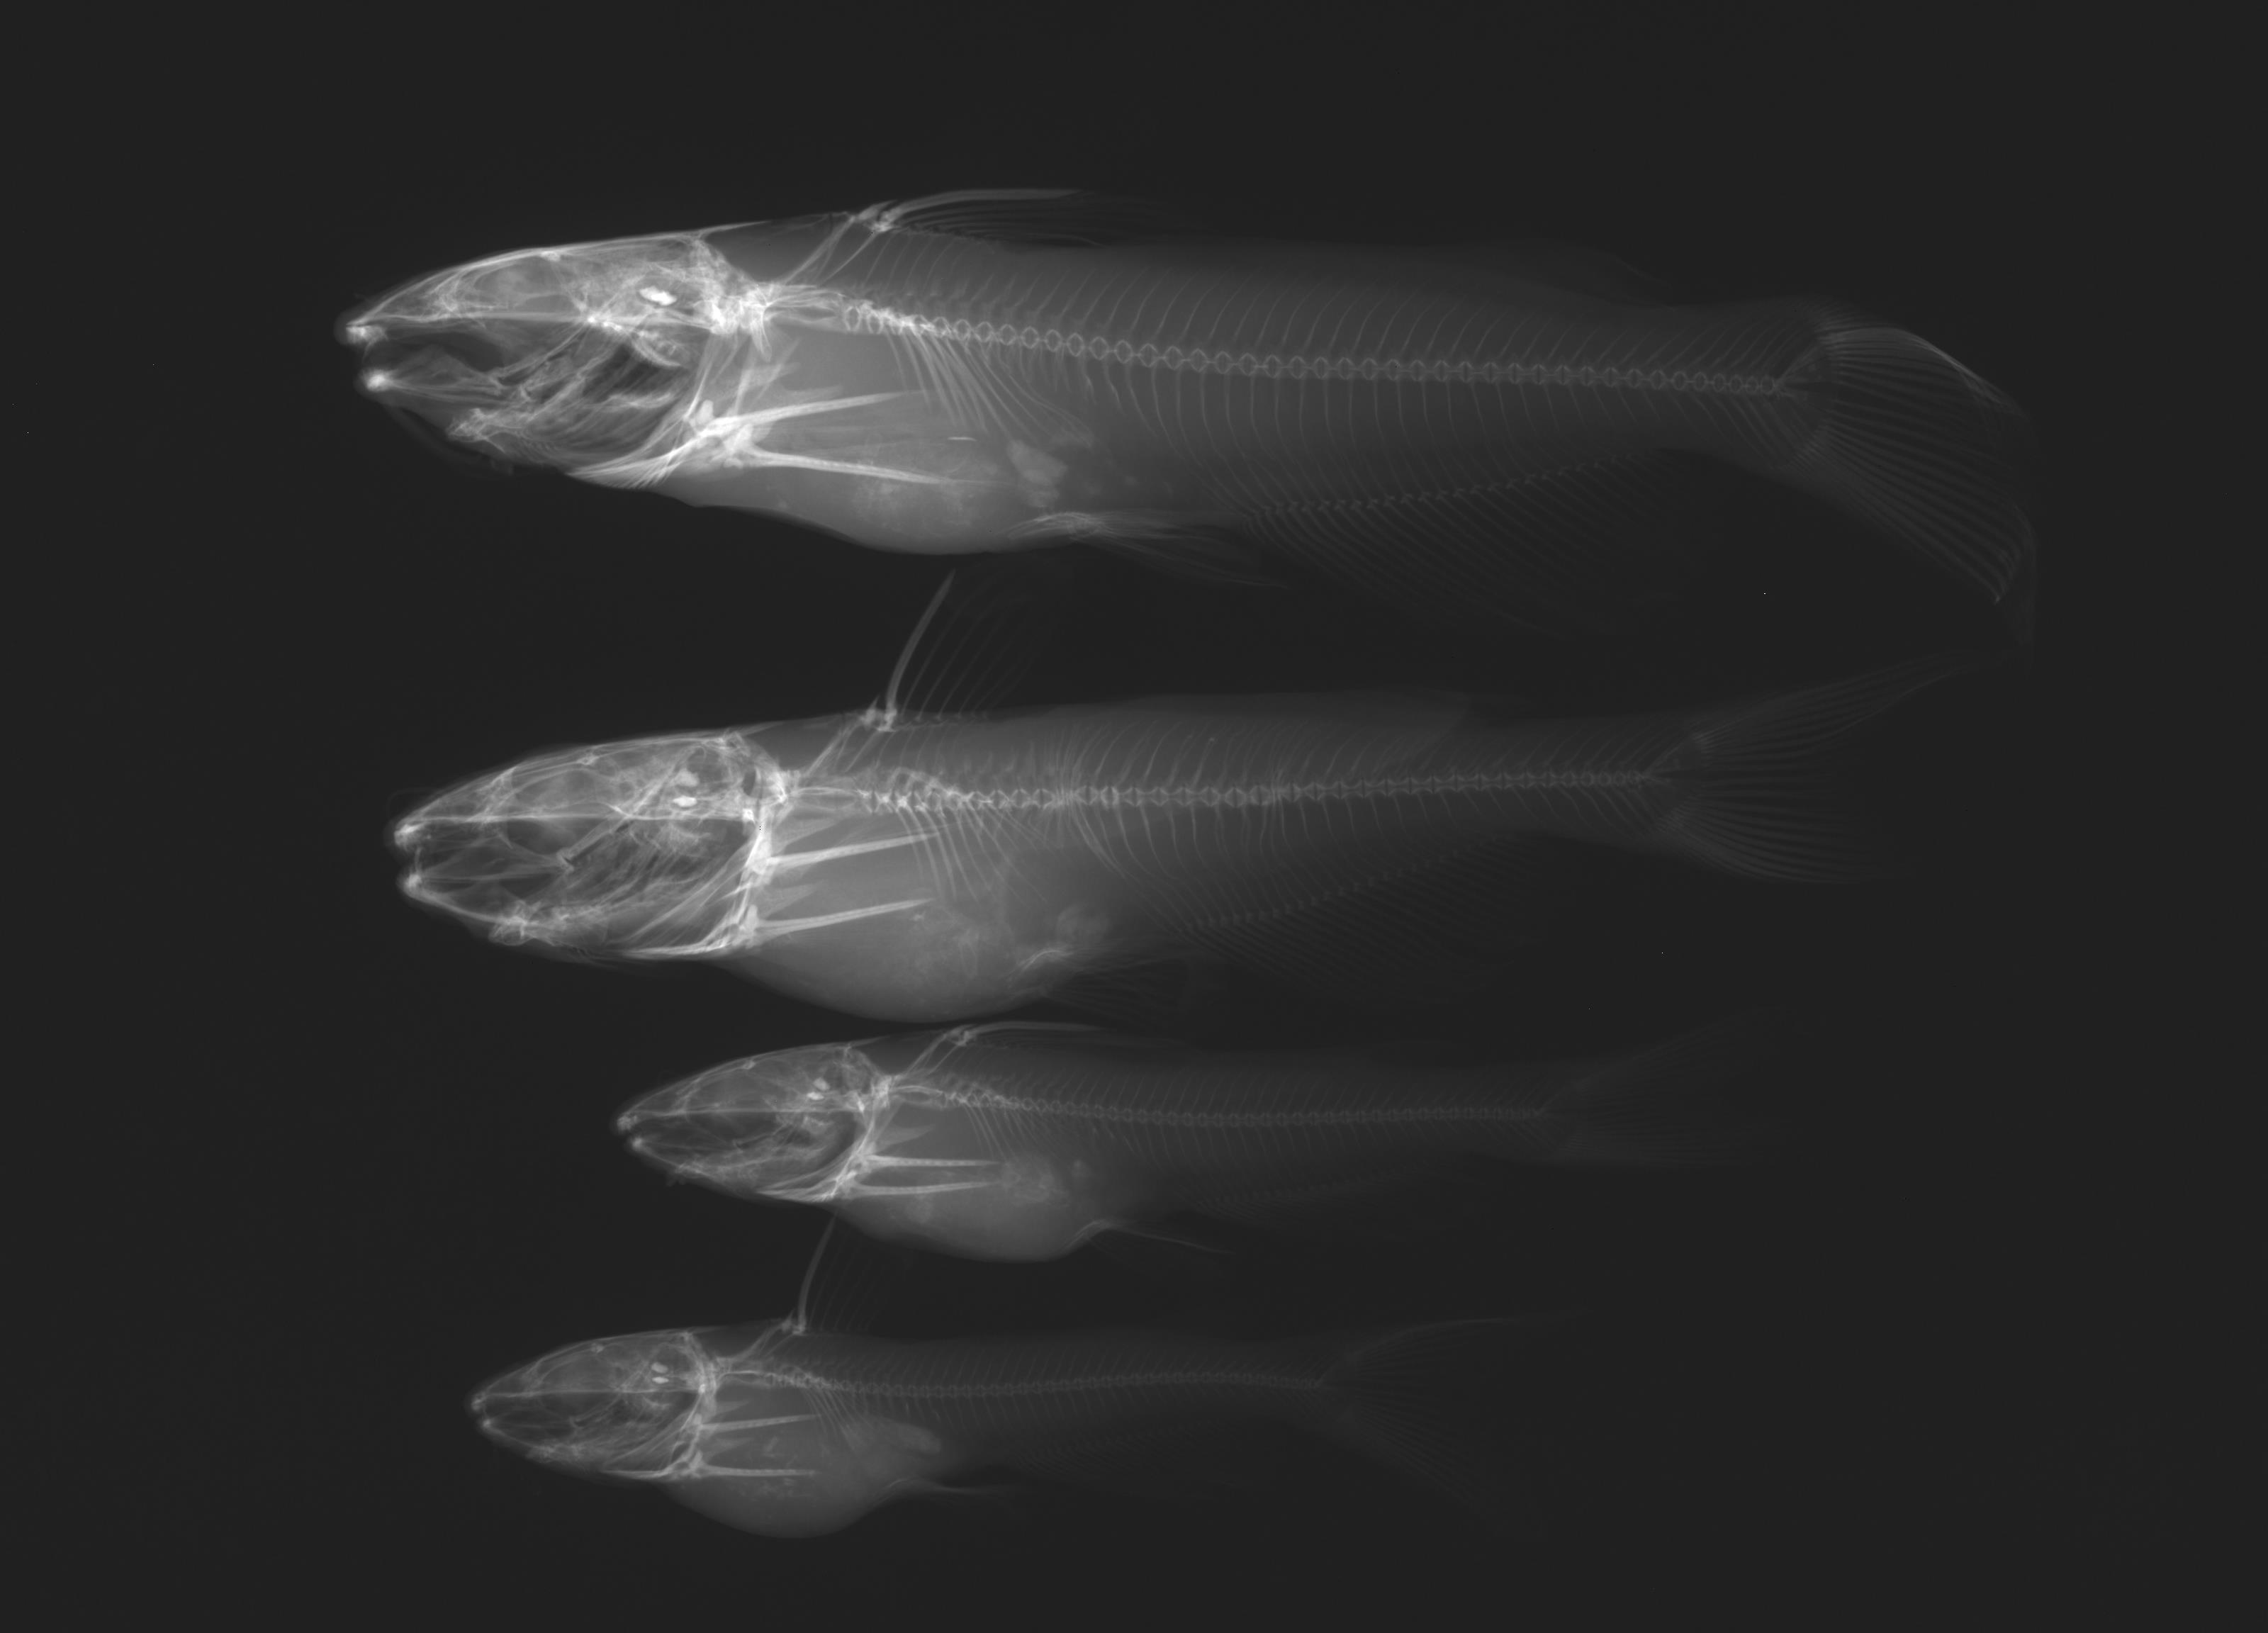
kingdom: Animalia
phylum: Chordata
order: Siluriformes
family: Ictaluridae
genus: Ictalurus
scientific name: Ictalurus lupus
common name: Headwater catfish
